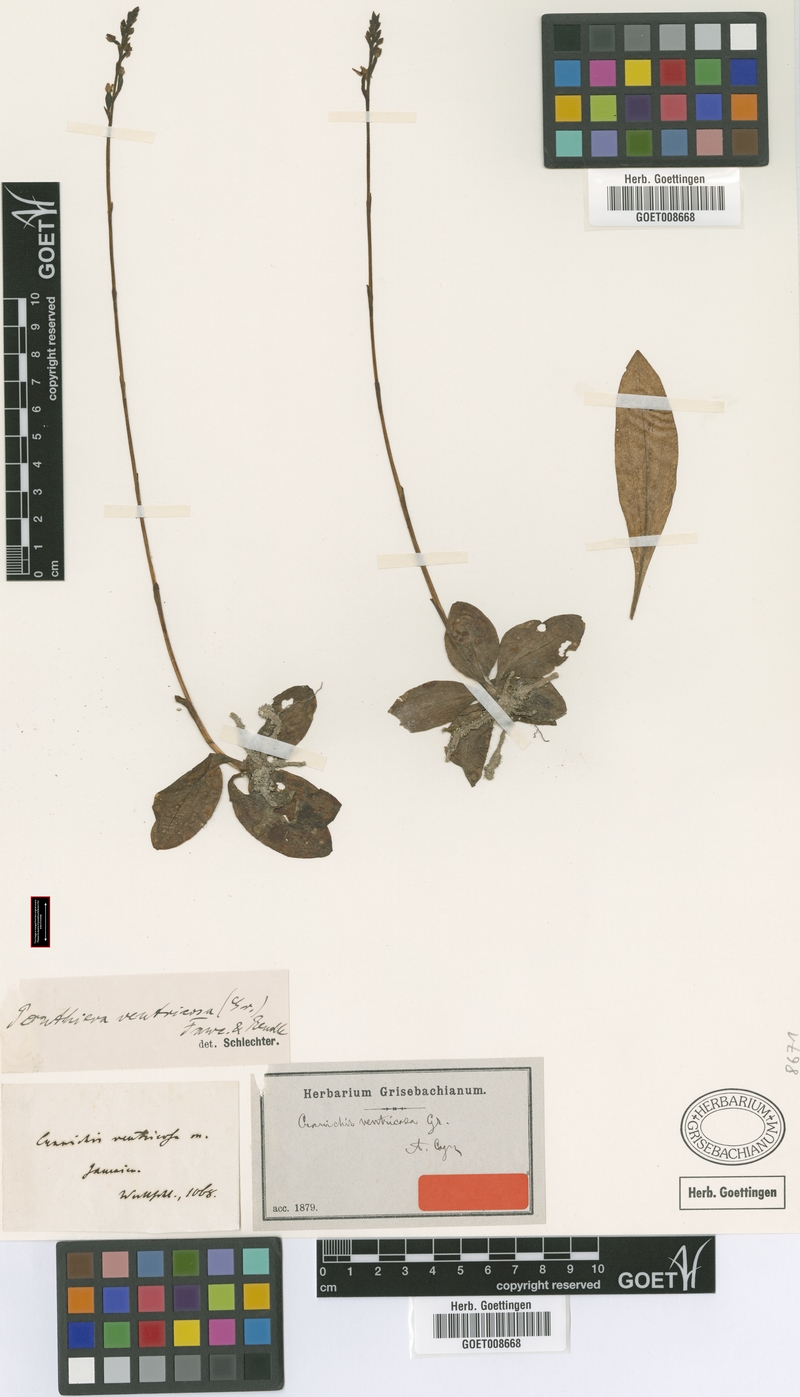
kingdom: Plantae
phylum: Tracheophyta
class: Liliopsida
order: Asparagales
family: Orchidaceae
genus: Ponthieva
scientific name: Ponthieva ventricosa
